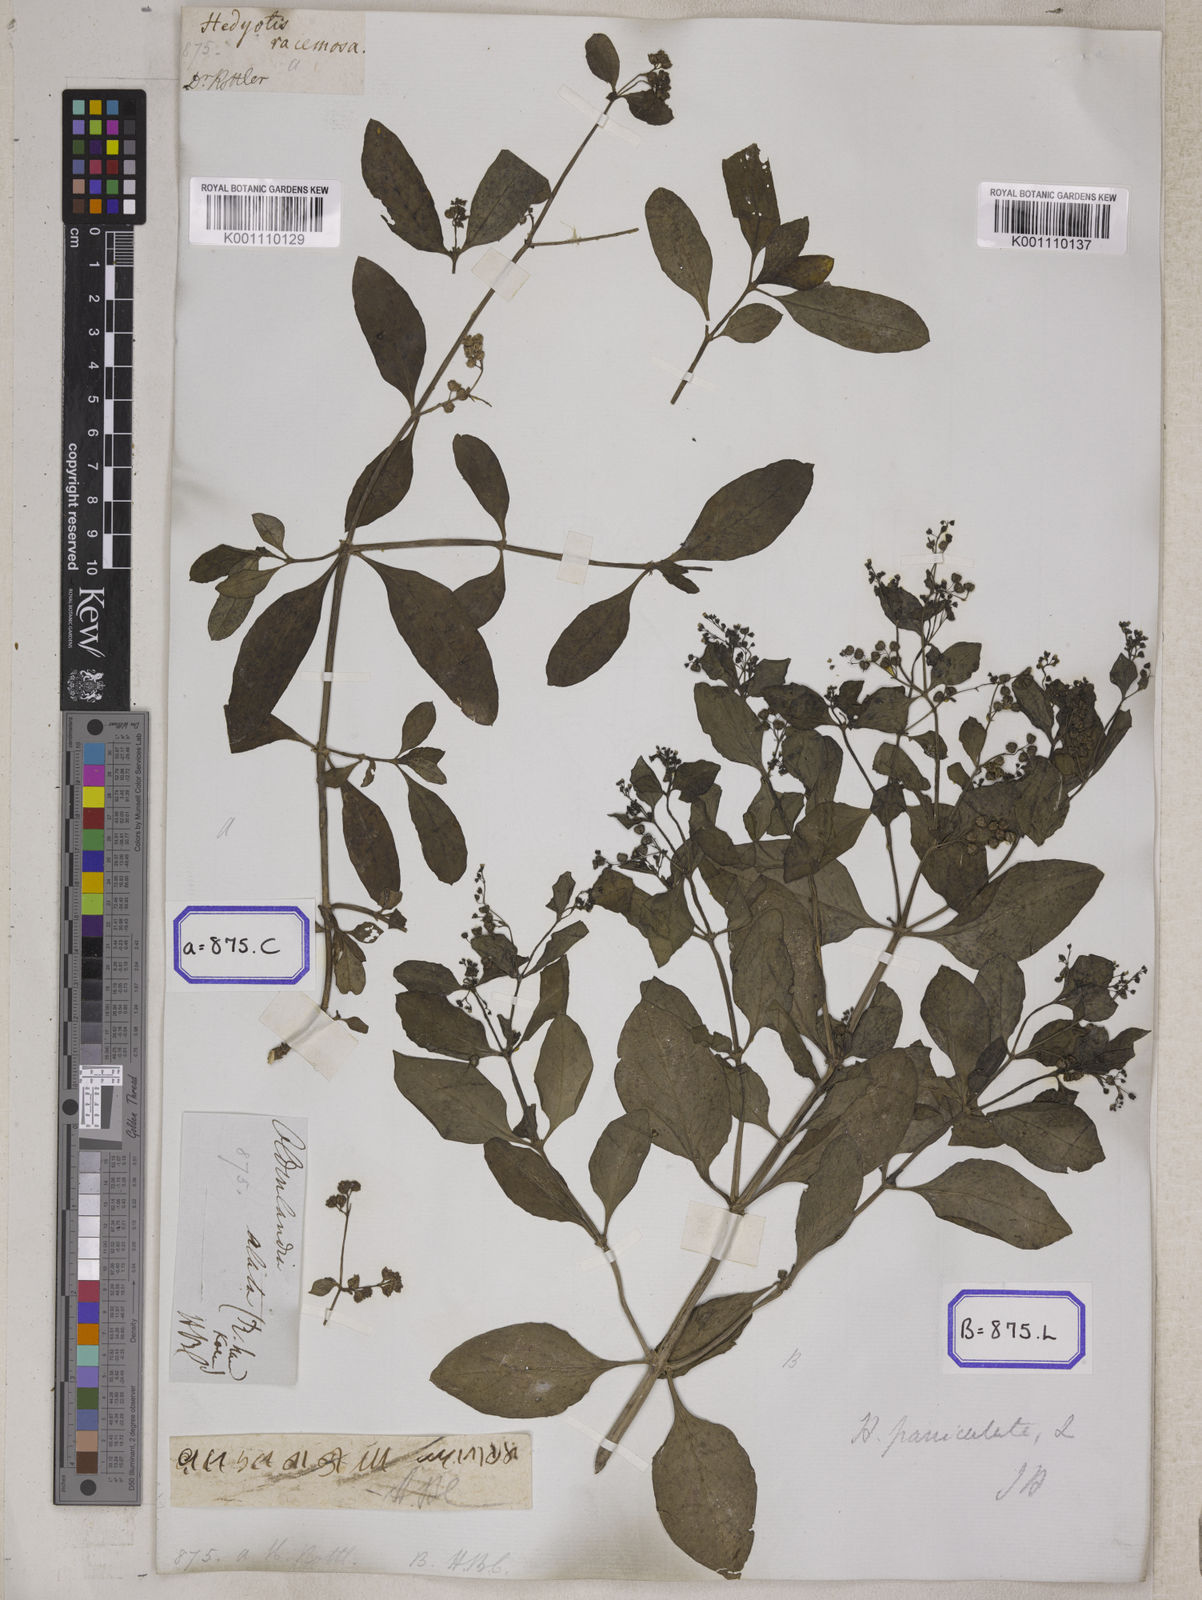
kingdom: Plantae
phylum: Tracheophyta
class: Magnoliopsida
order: Gentianales
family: Rubiaceae
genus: Leptopetalum
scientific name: Leptopetalum racemosum
